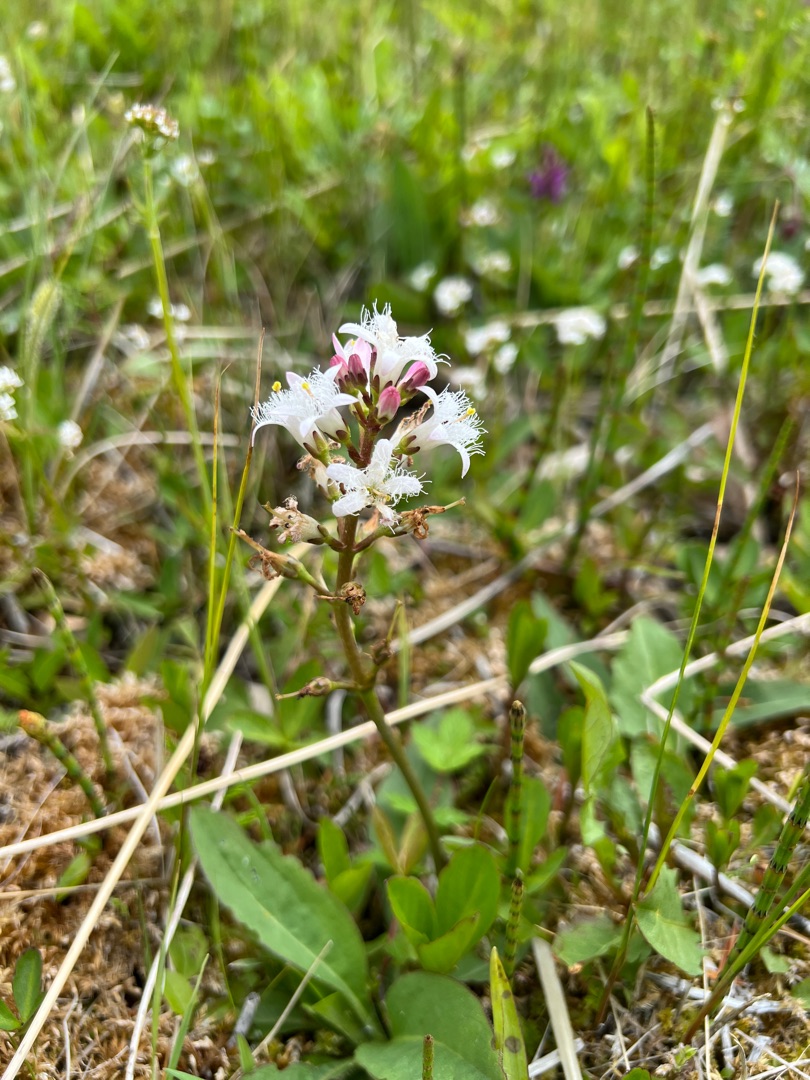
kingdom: Plantae
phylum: Tracheophyta
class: Magnoliopsida
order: Asterales
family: Menyanthaceae
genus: Menyanthes
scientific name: Menyanthes trifoliata
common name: Bukkeblad
